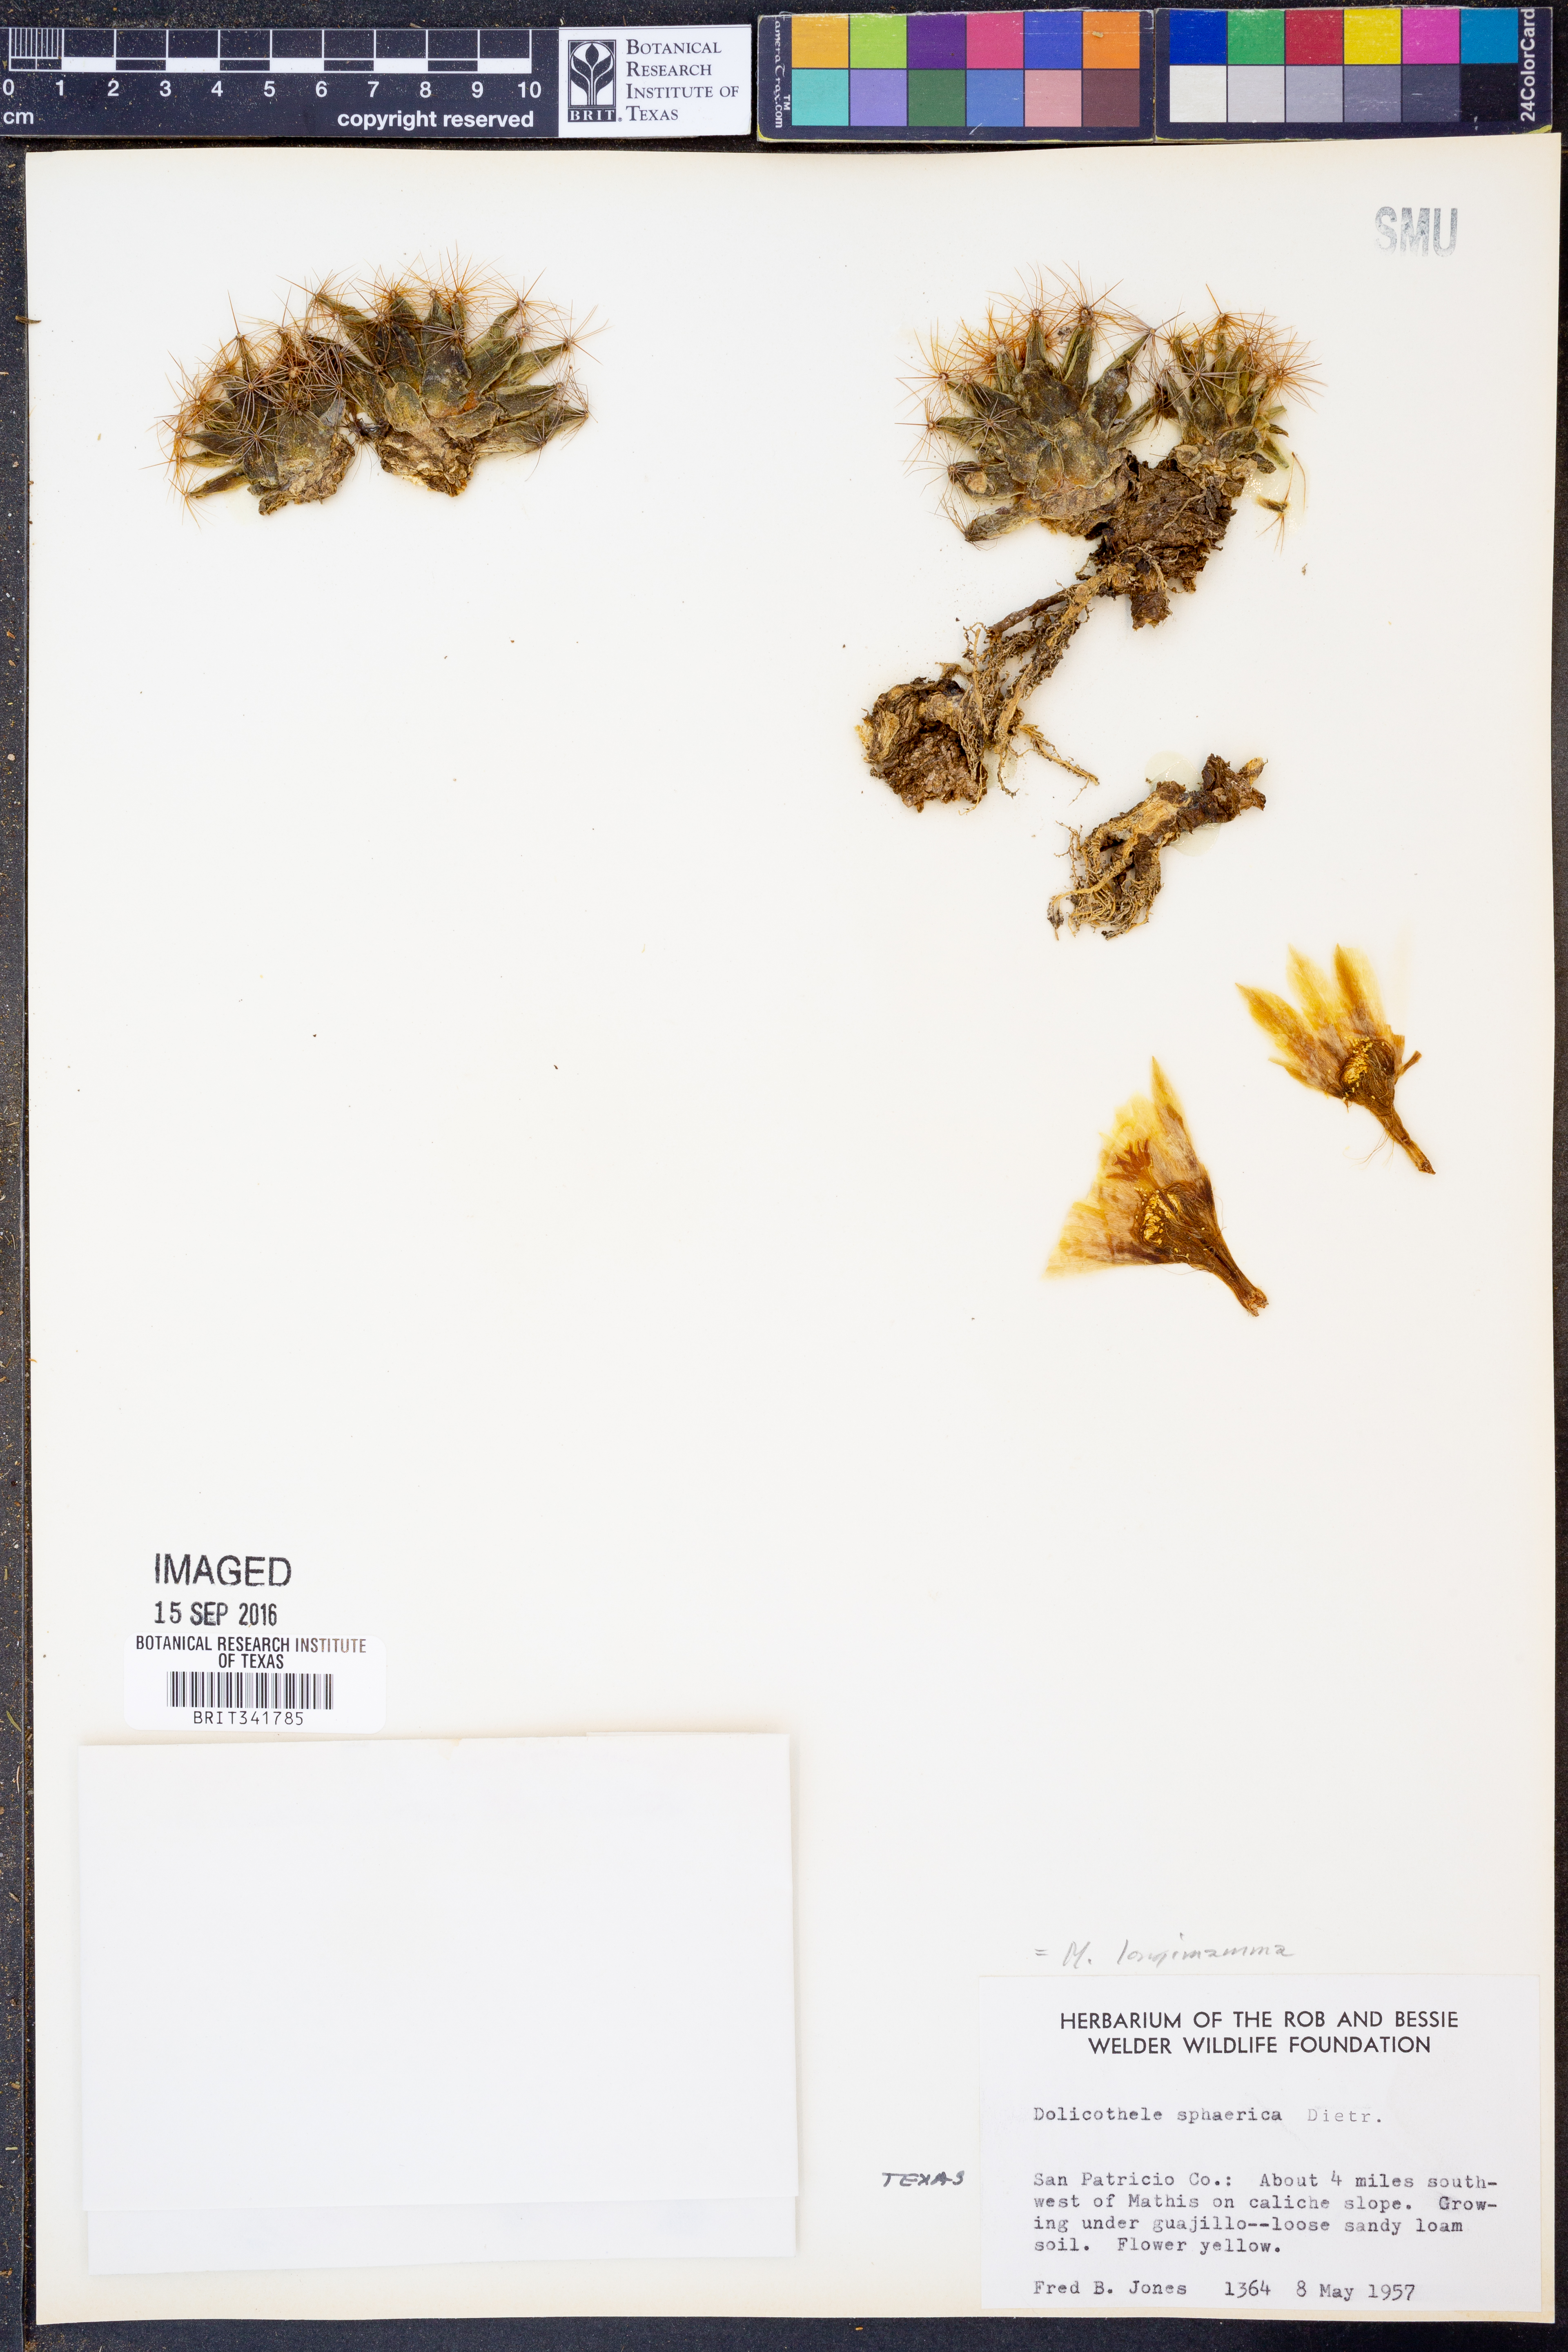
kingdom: Plantae
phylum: Tracheophyta
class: Magnoliopsida
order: Caryophyllales
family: Cactaceae
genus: Mammillaria
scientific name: Mammillaria longimamma
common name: Pineapple cactus
